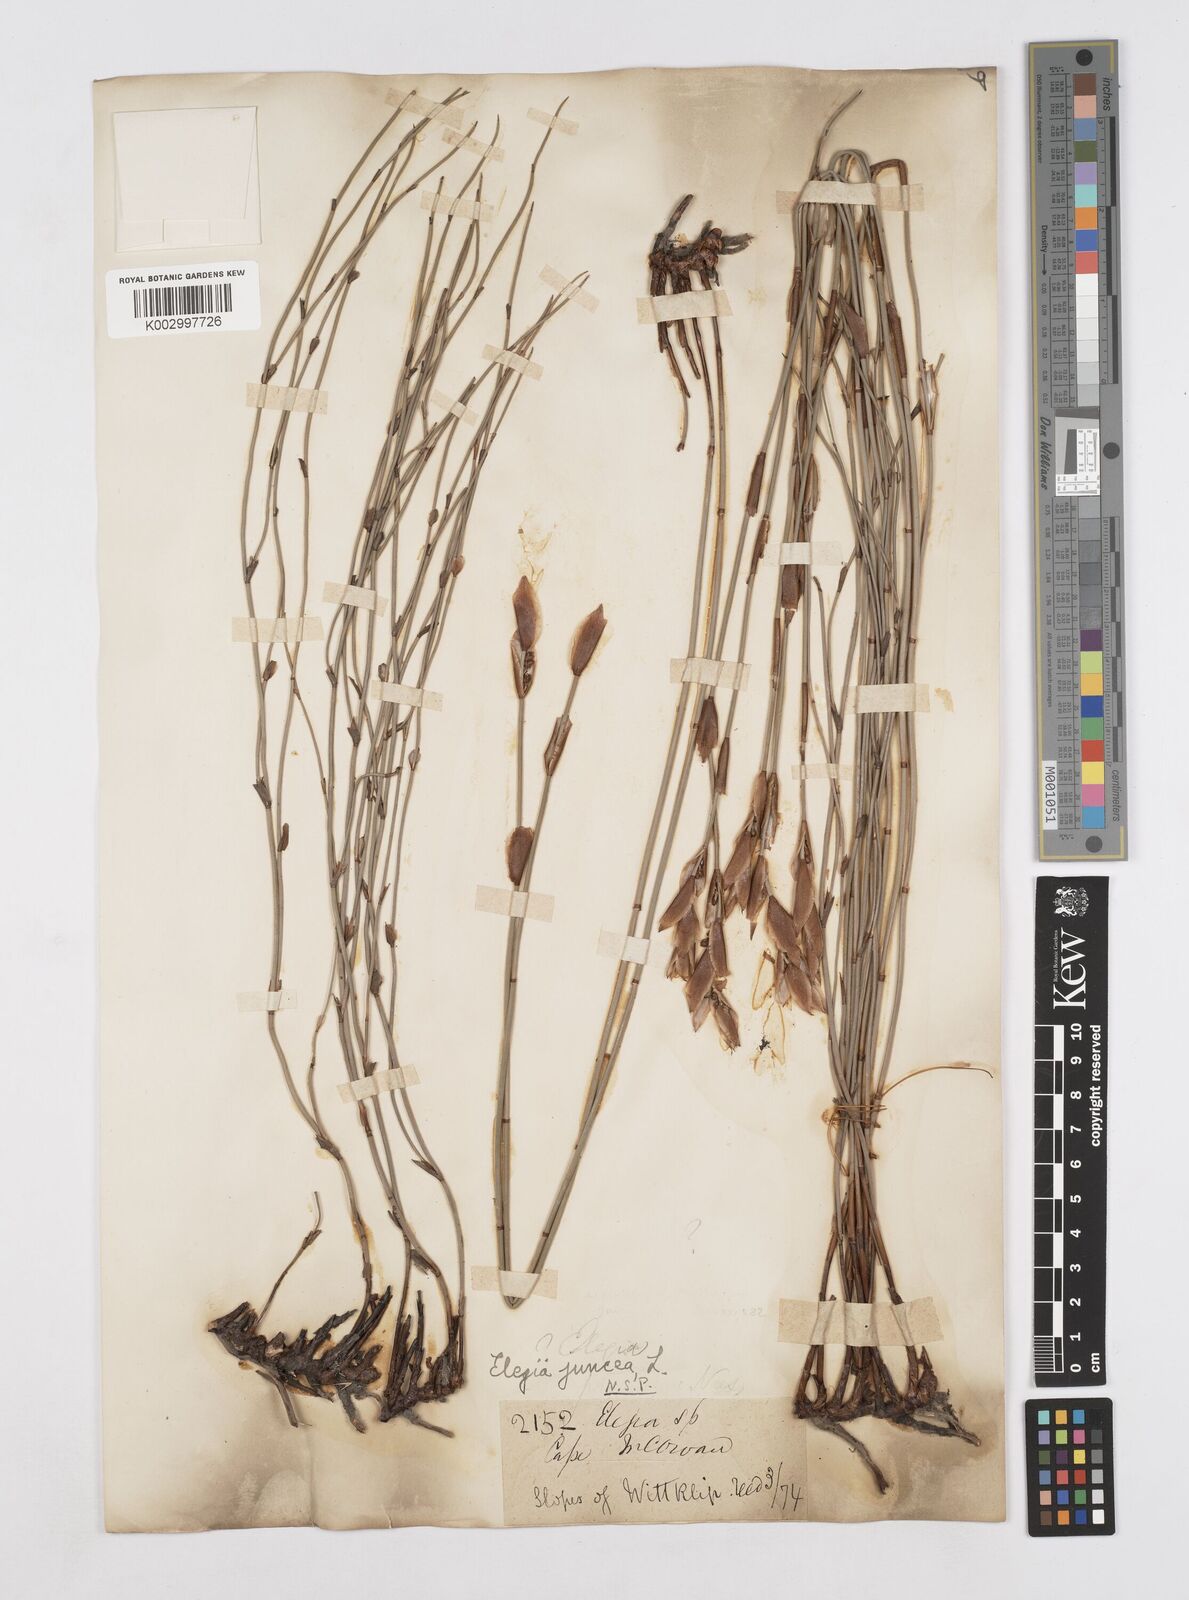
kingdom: Plantae
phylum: Tracheophyta
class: Liliopsida
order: Poales
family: Restionaceae
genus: Elegia
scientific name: Elegia juncea
